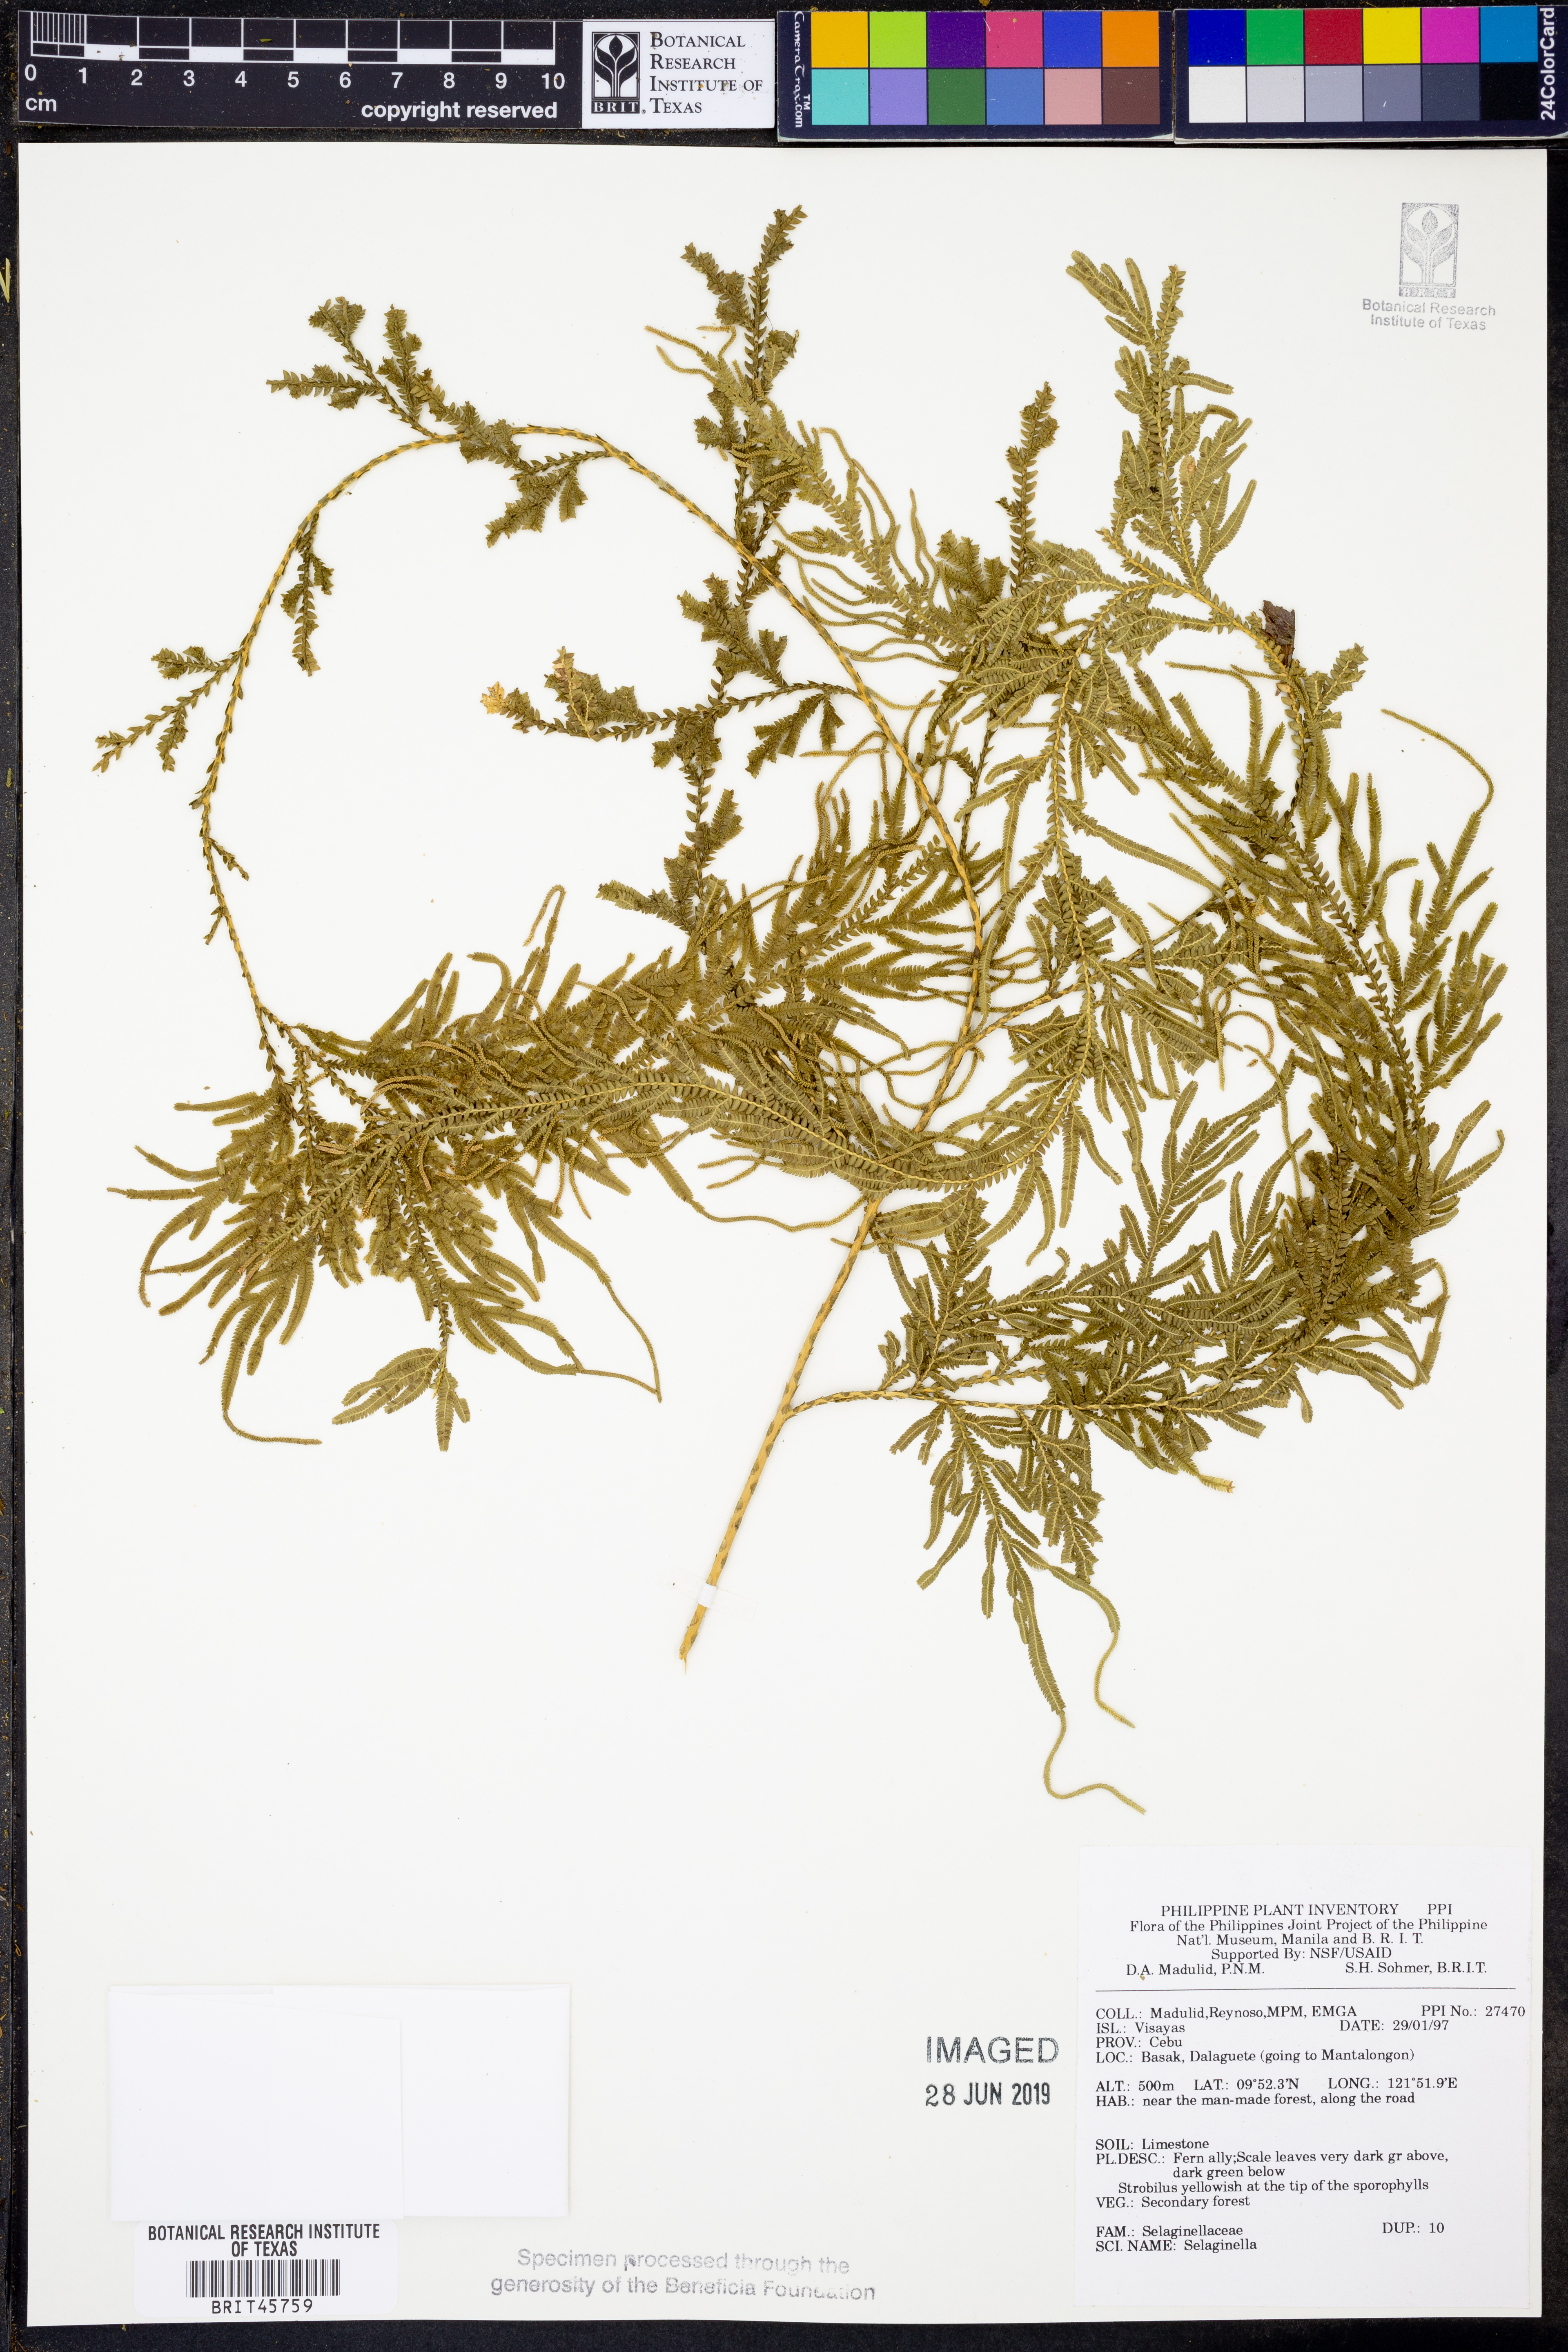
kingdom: Plantae
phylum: Tracheophyta
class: Lycopodiopsida
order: Selaginellales
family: Selaginellaceae
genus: Selaginella
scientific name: Selaginella
